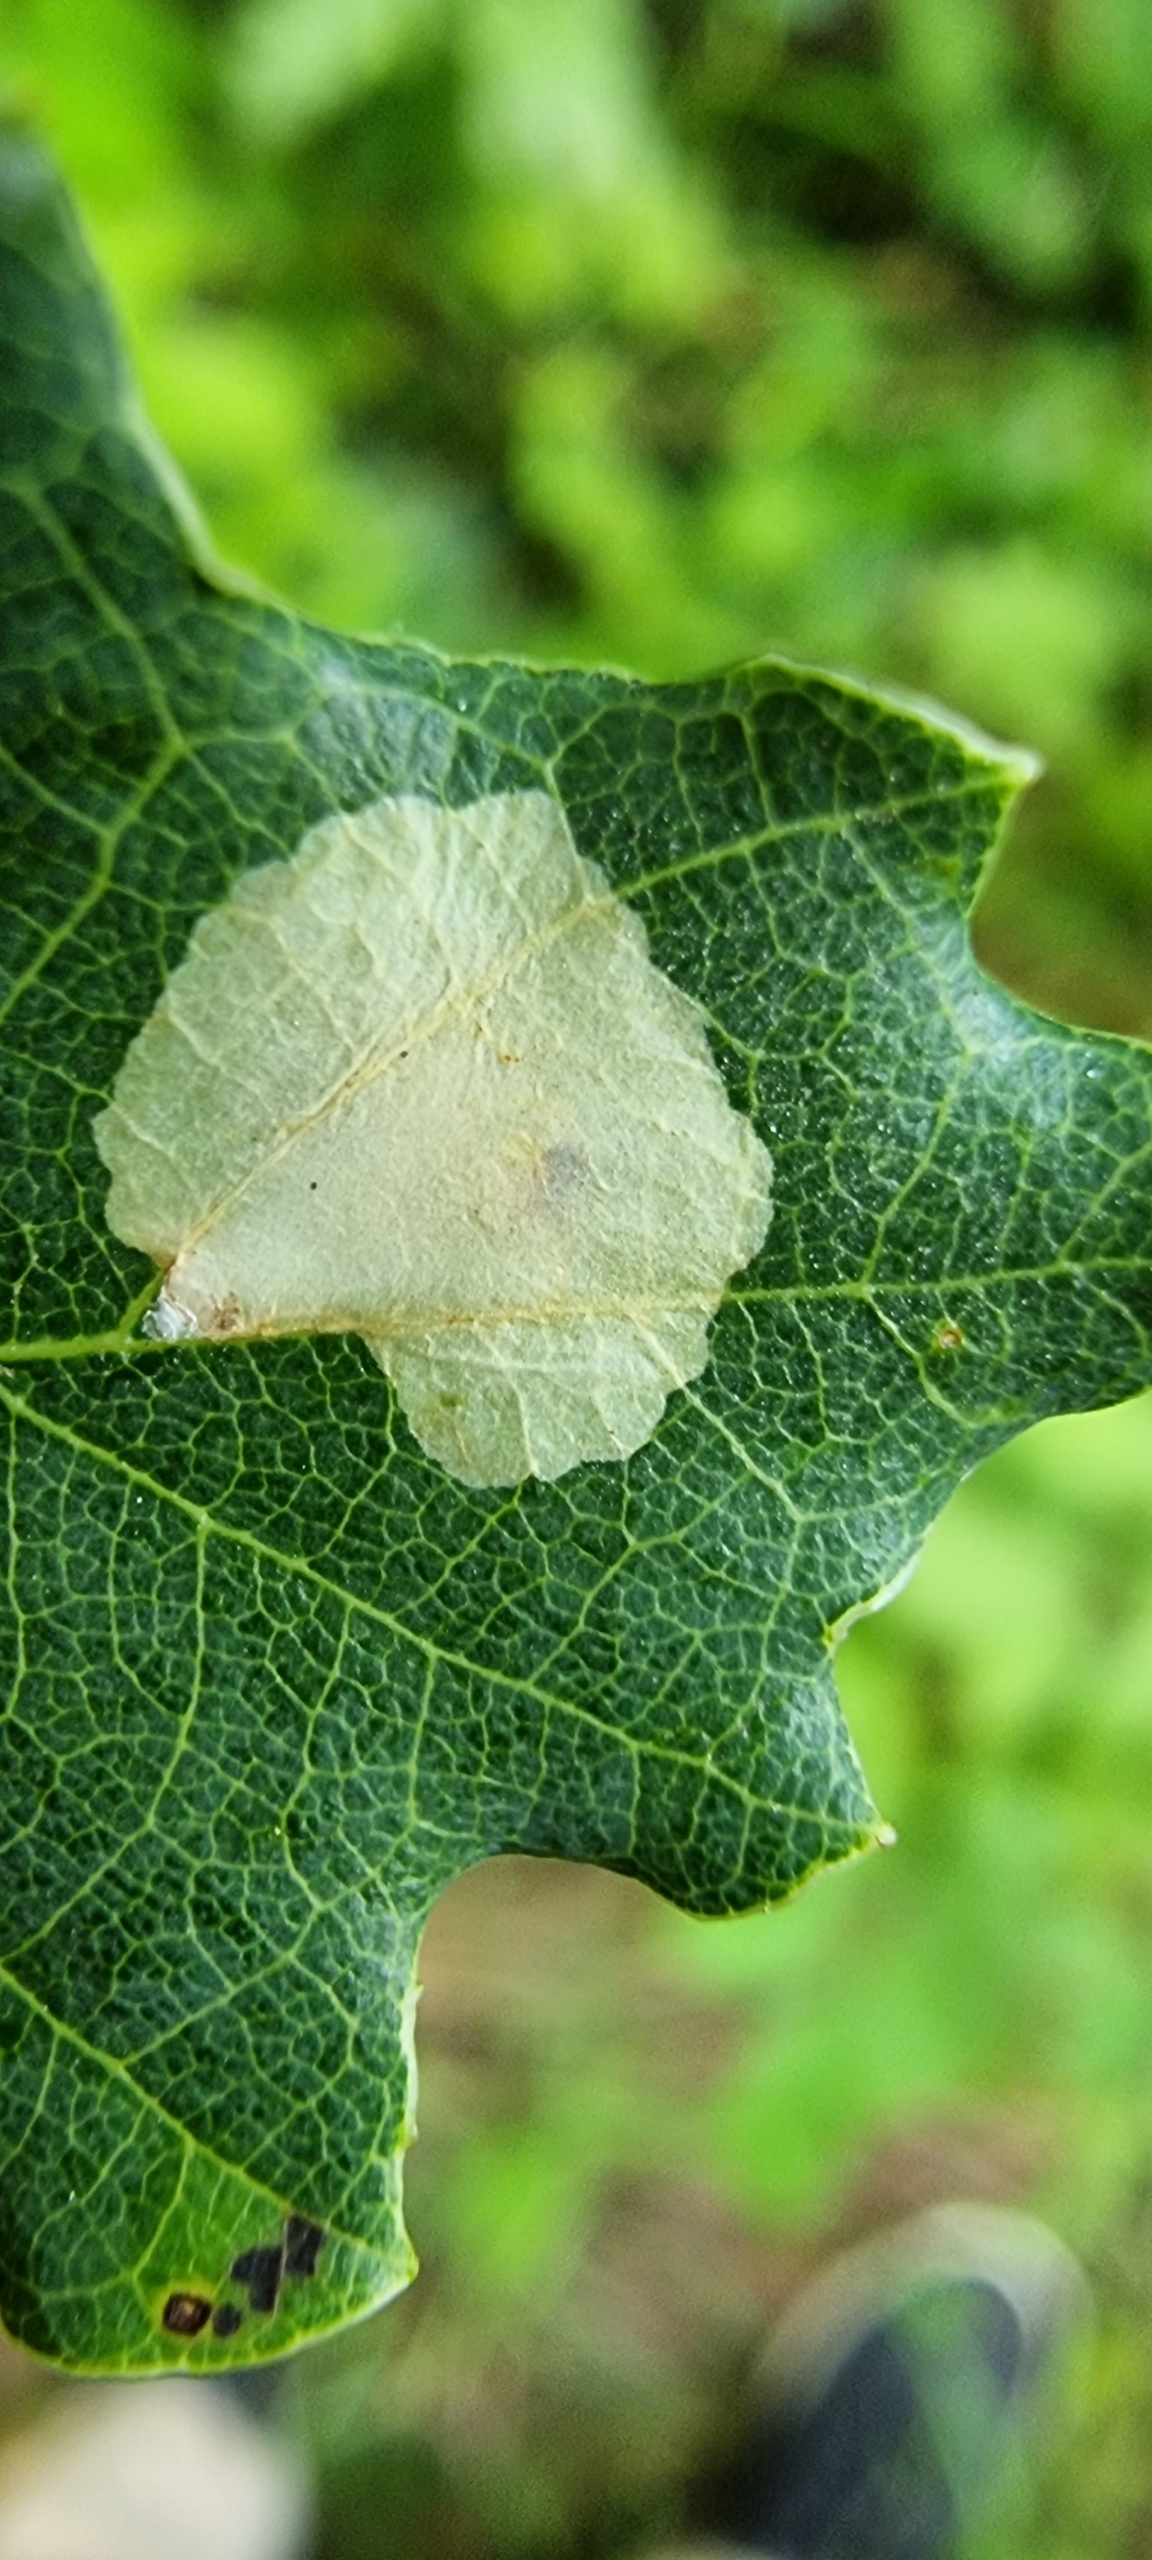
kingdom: Animalia
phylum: Arthropoda
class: Insecta
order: Lepidoptera
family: Tischeriidae
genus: Tischeria
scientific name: Tischeria ekebladella
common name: Egepandeduskmøl
